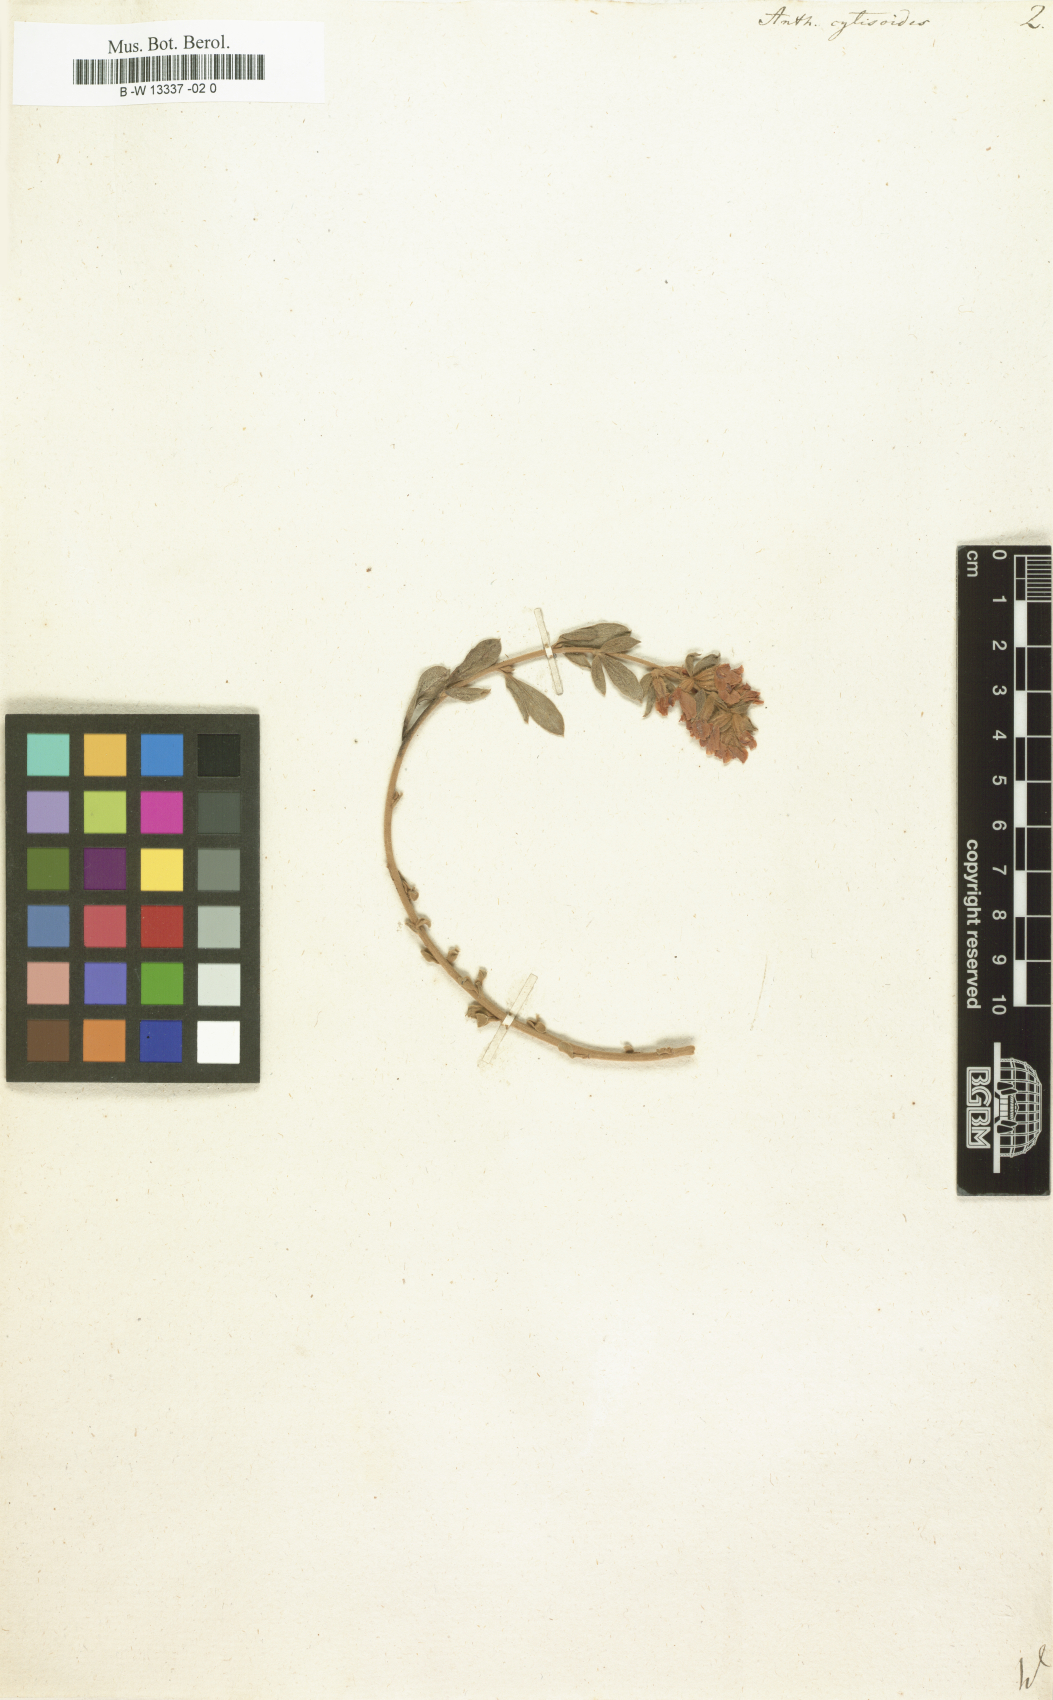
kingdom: Plantae
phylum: Tracheophyta
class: Magnoliopsida
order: Fabales
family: Fabaceae
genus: Anthyllis
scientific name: Anthyllis cytisoides
